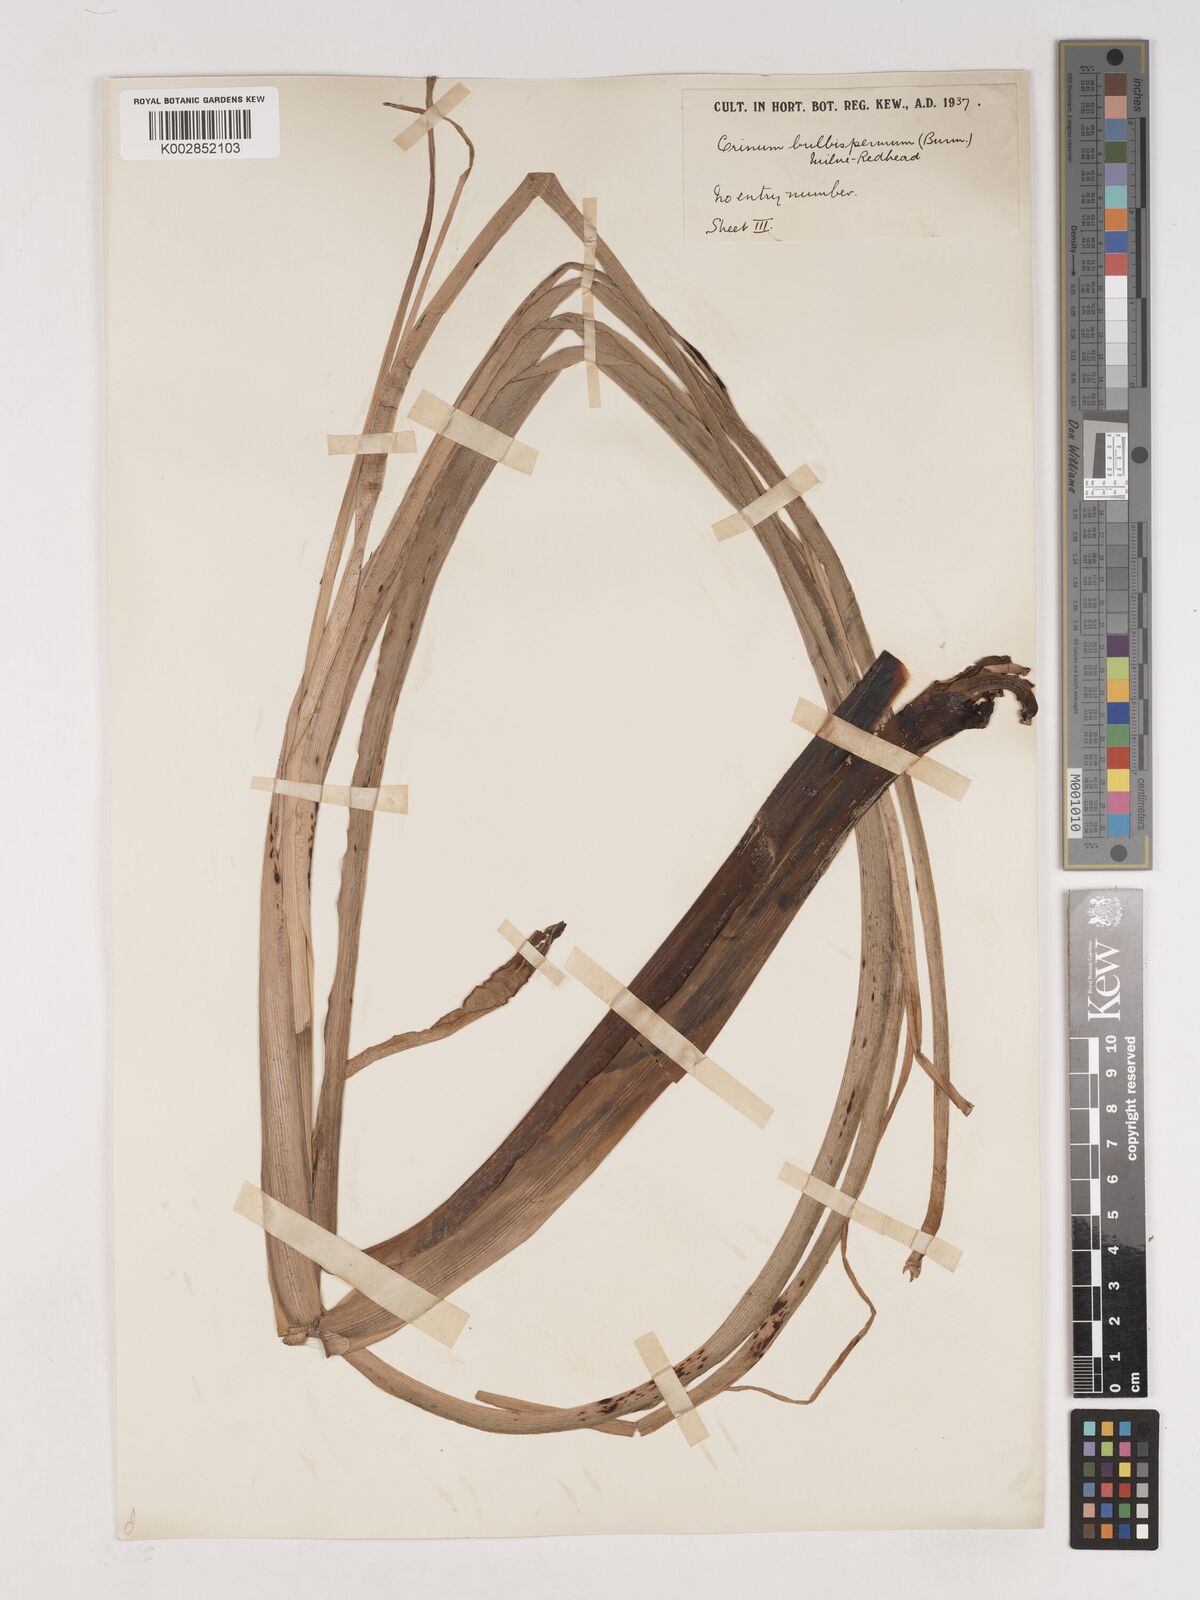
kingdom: Plantae
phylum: Tracheophyta
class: Liliopsida
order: Asparagales
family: Amaryllidaceae
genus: Crinum
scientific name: Crinum bulbispermum
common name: Hardy swamplily
